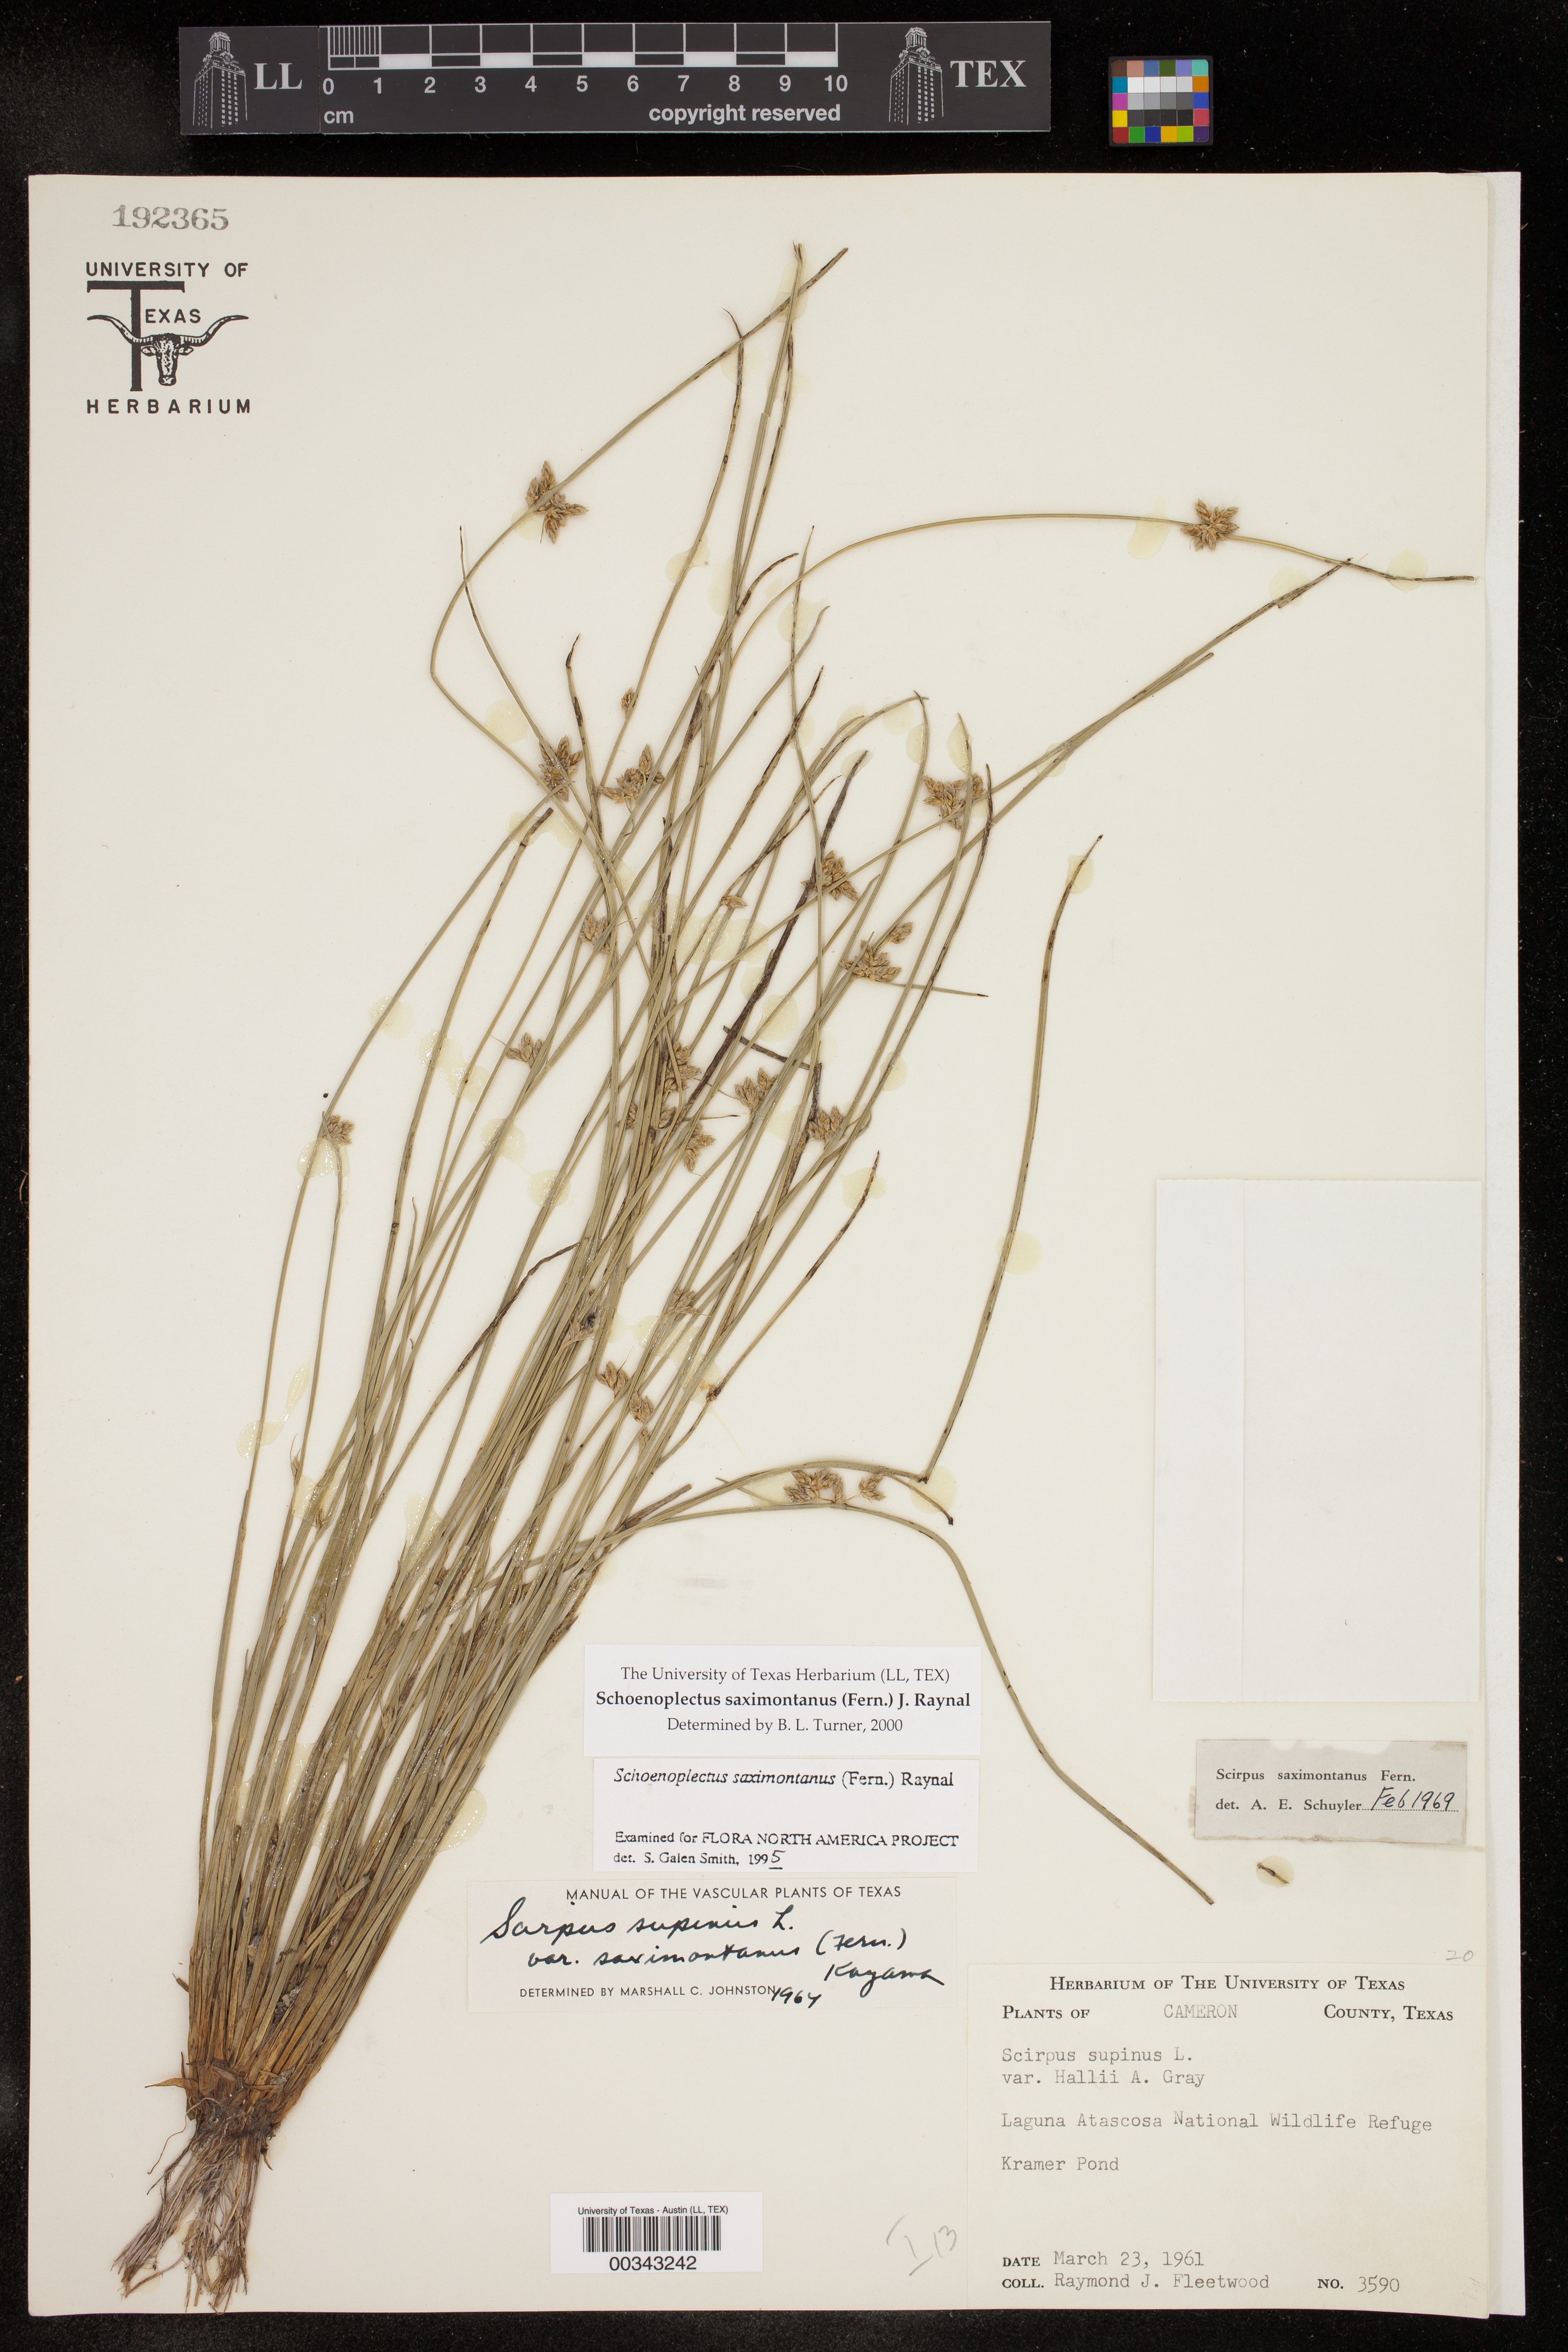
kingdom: Plantae
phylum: Tracheophyta
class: Liliopsida
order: Poales
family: Cyperaceae
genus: Schoenoplectiella
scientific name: Schoenoplectiella saximontana
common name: Rocky mountain clubrush
